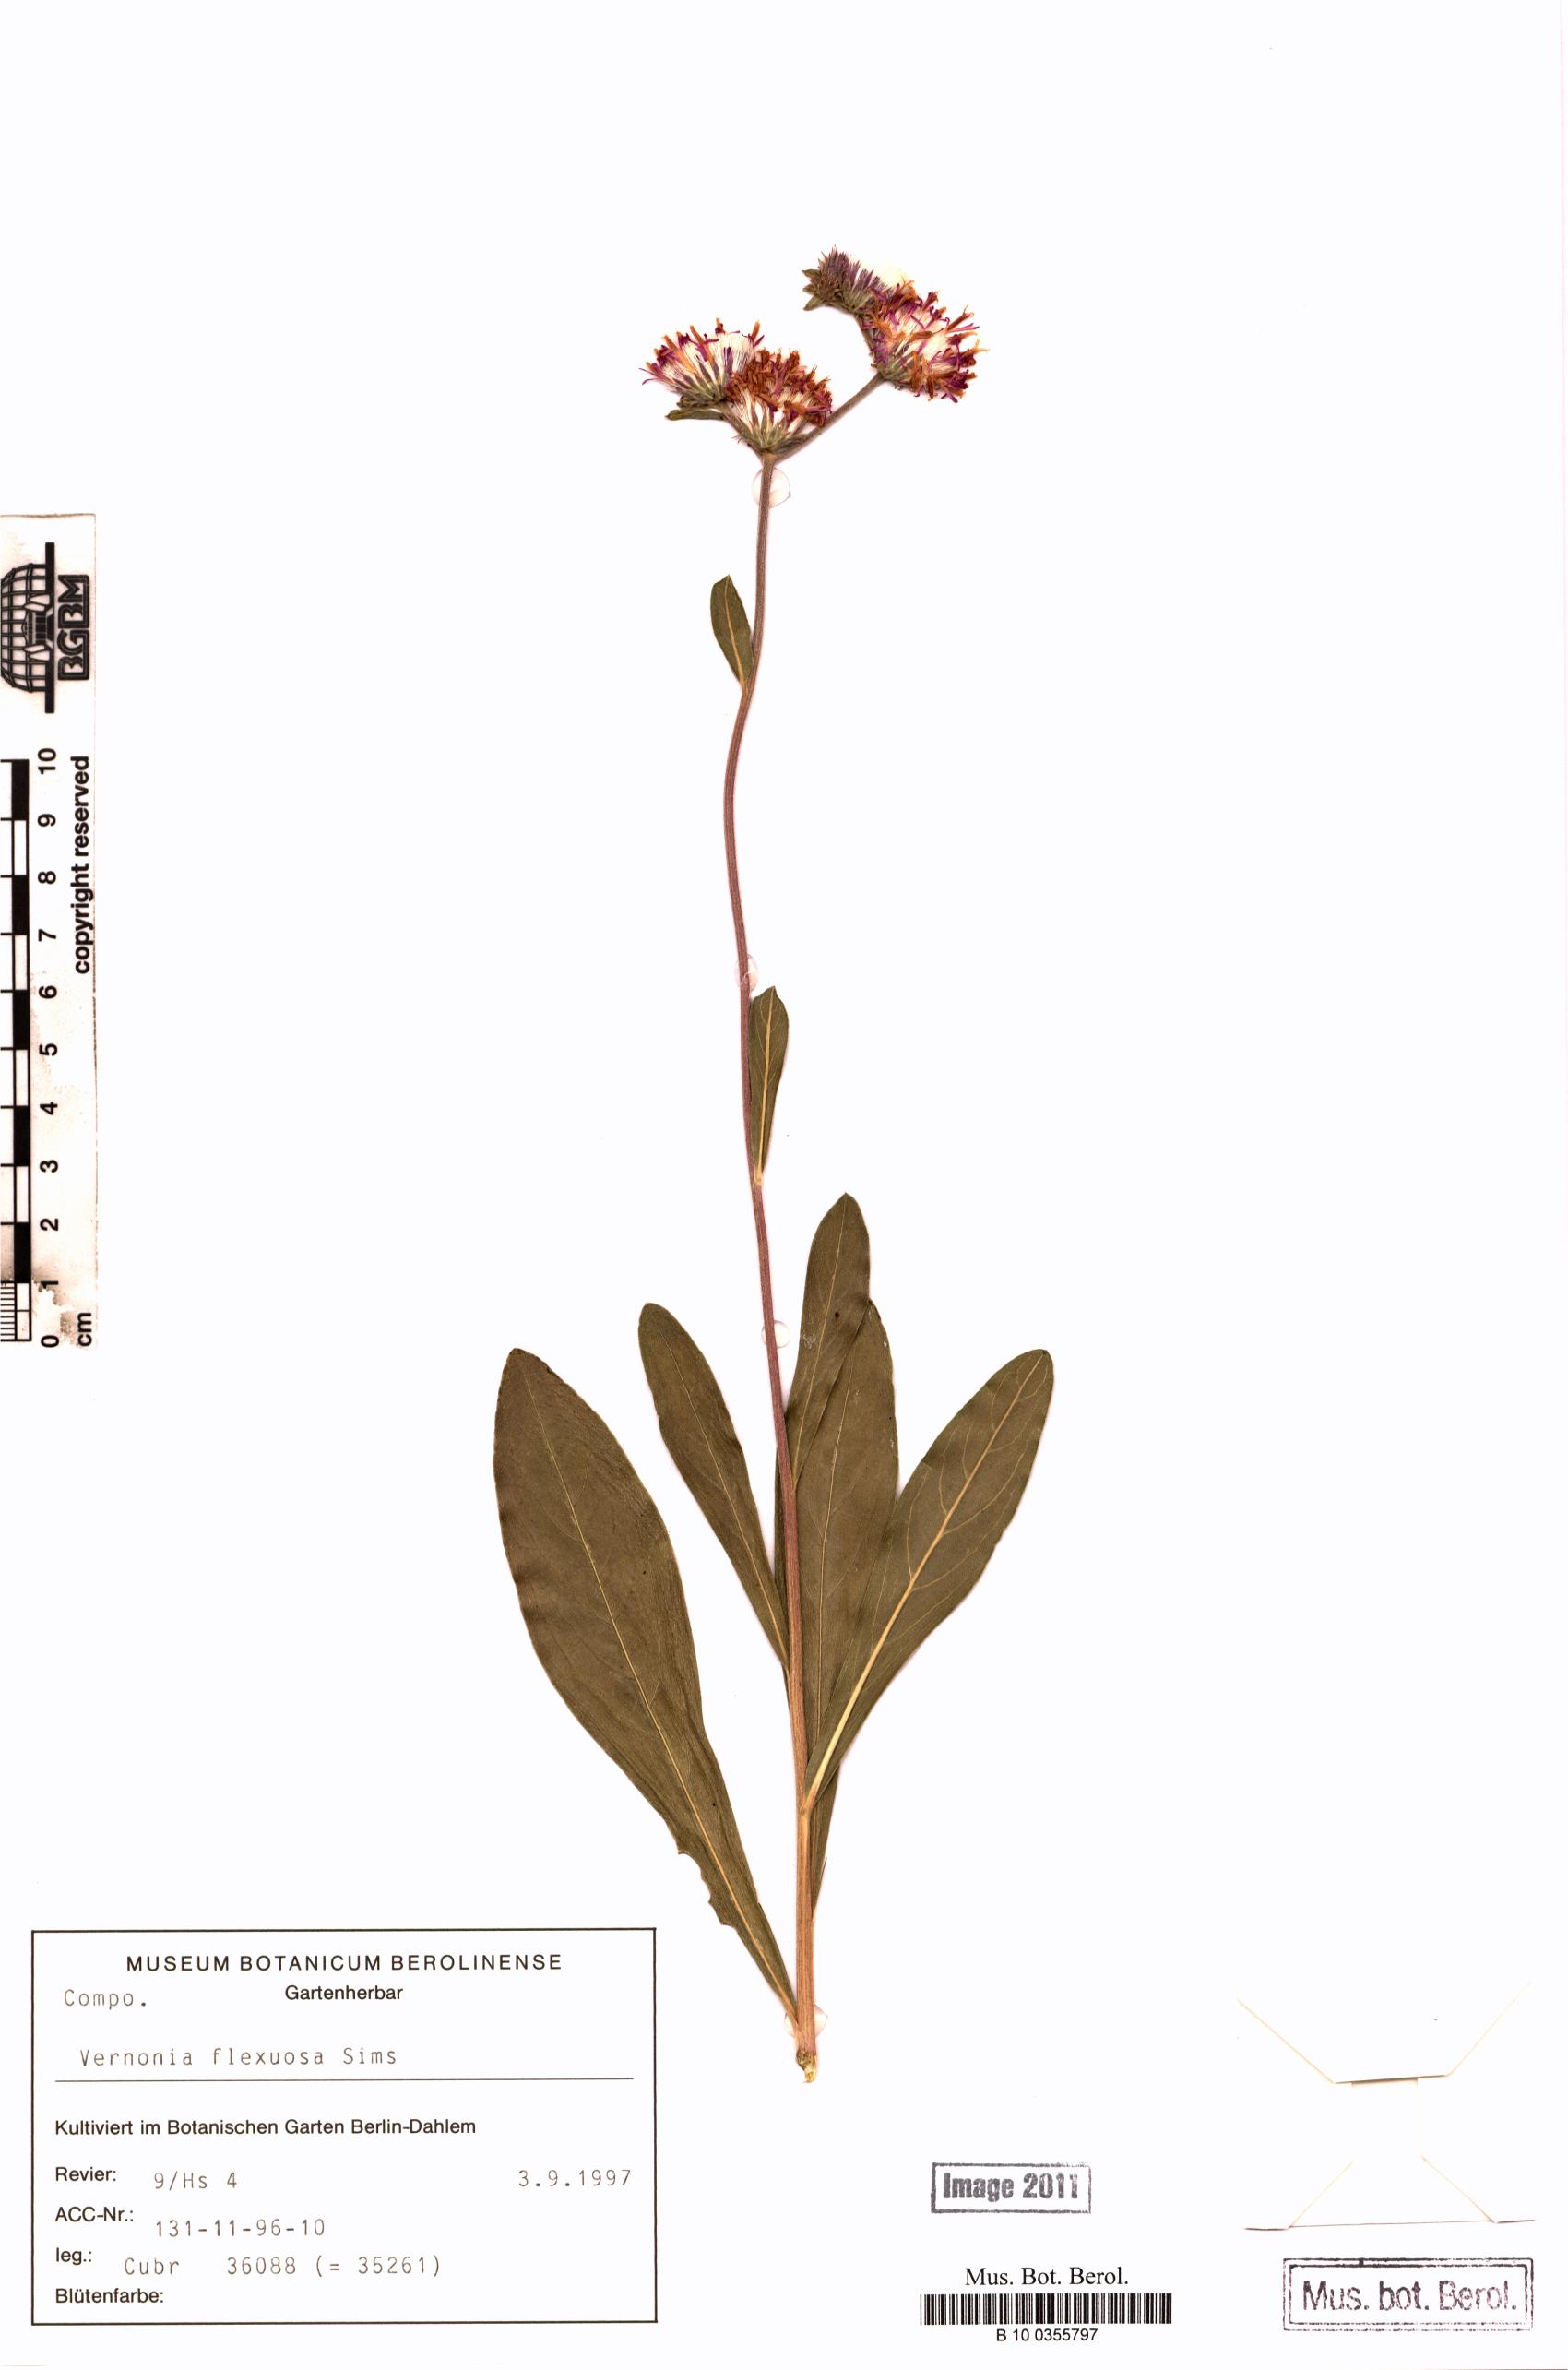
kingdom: Plantae
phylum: Tracheophyta
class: Magnoliopsida
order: Asterales
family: Asteraceae
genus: Chrysolaena
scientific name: Chrysolaena flexuosa
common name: Zig-zag vernonia
